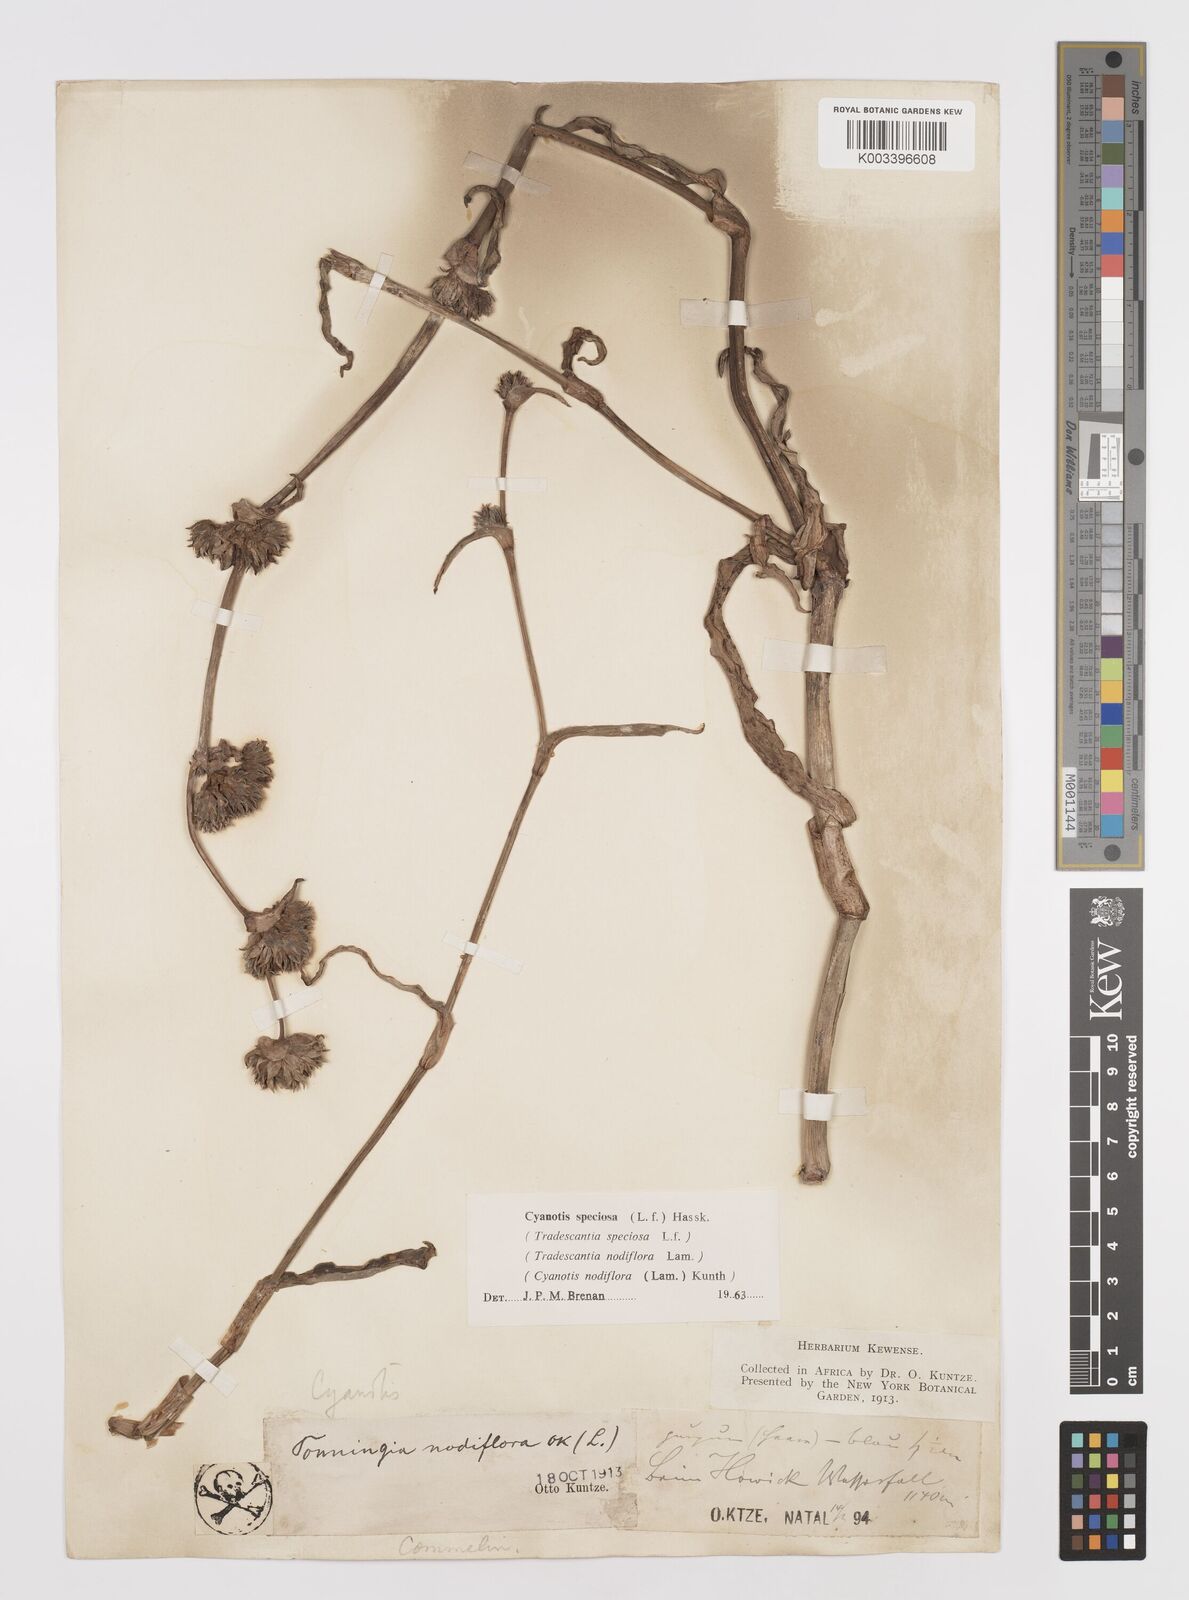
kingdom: Plantae
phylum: Tracheophyta
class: Liliopsida
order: Commelinales
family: Commelinaceae
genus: Cyanotis
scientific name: Cyanotis speciosa
